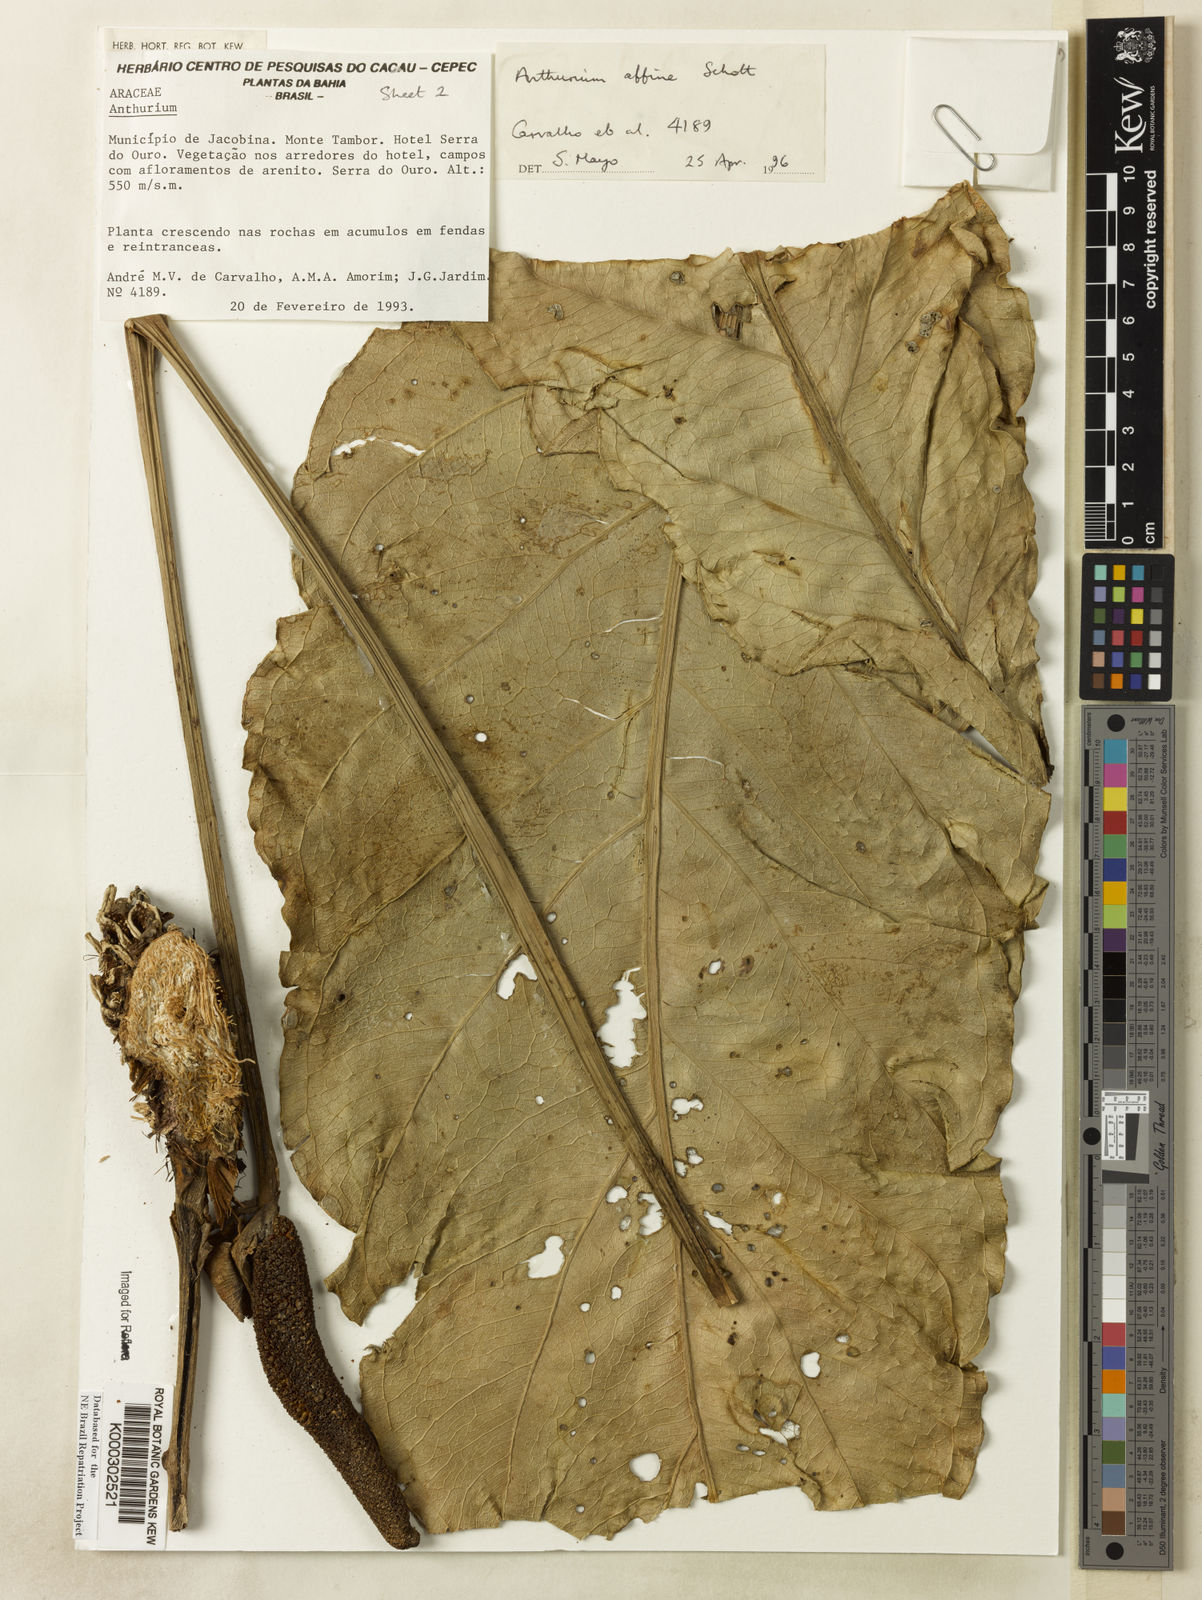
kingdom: Plantae
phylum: Tracheophyta
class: Liliopsida
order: Alismatales
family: Araceae
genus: Anthurium
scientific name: Anthurium affine
